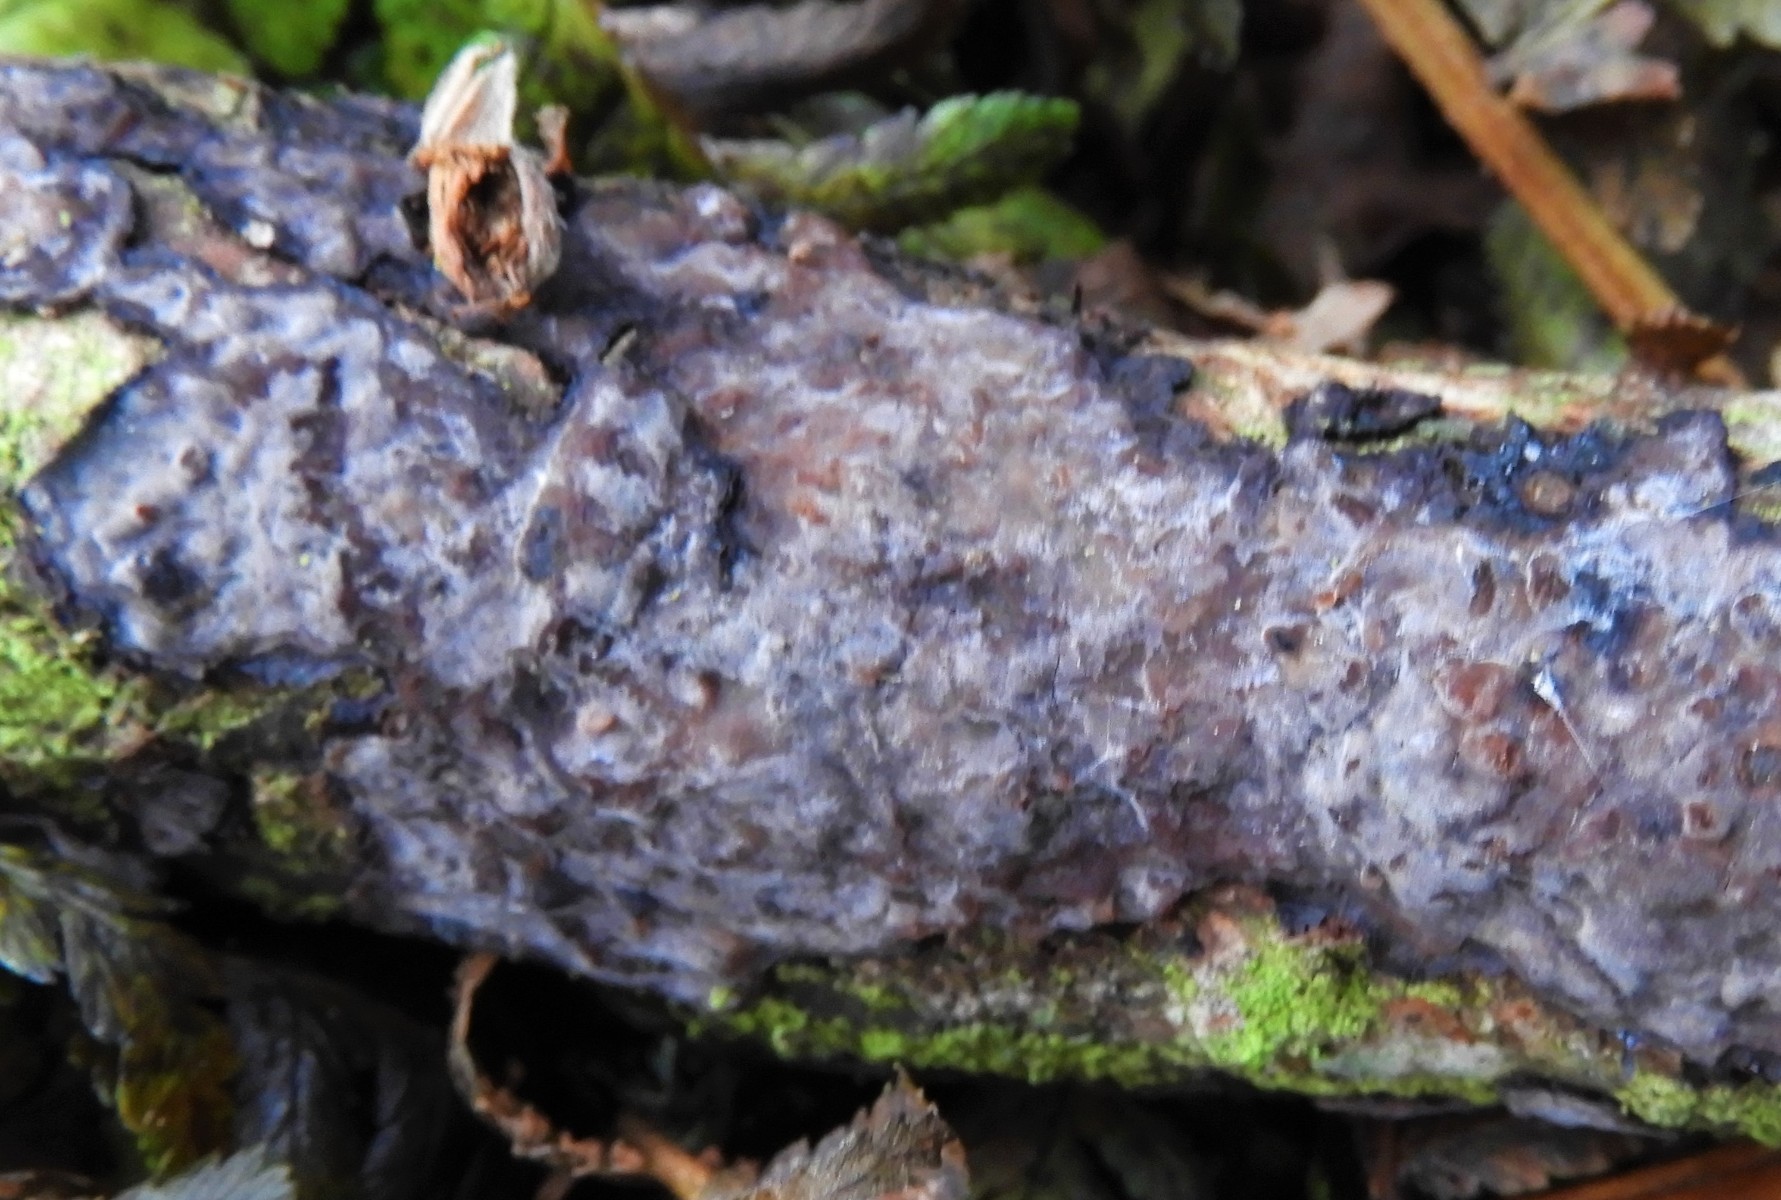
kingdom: Fungi
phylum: Basidiomycota
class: Agaricomycetes
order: Russulales
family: Peniophoraceae
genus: Peniophora
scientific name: Peniophora quercina
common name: ege-voksskind
